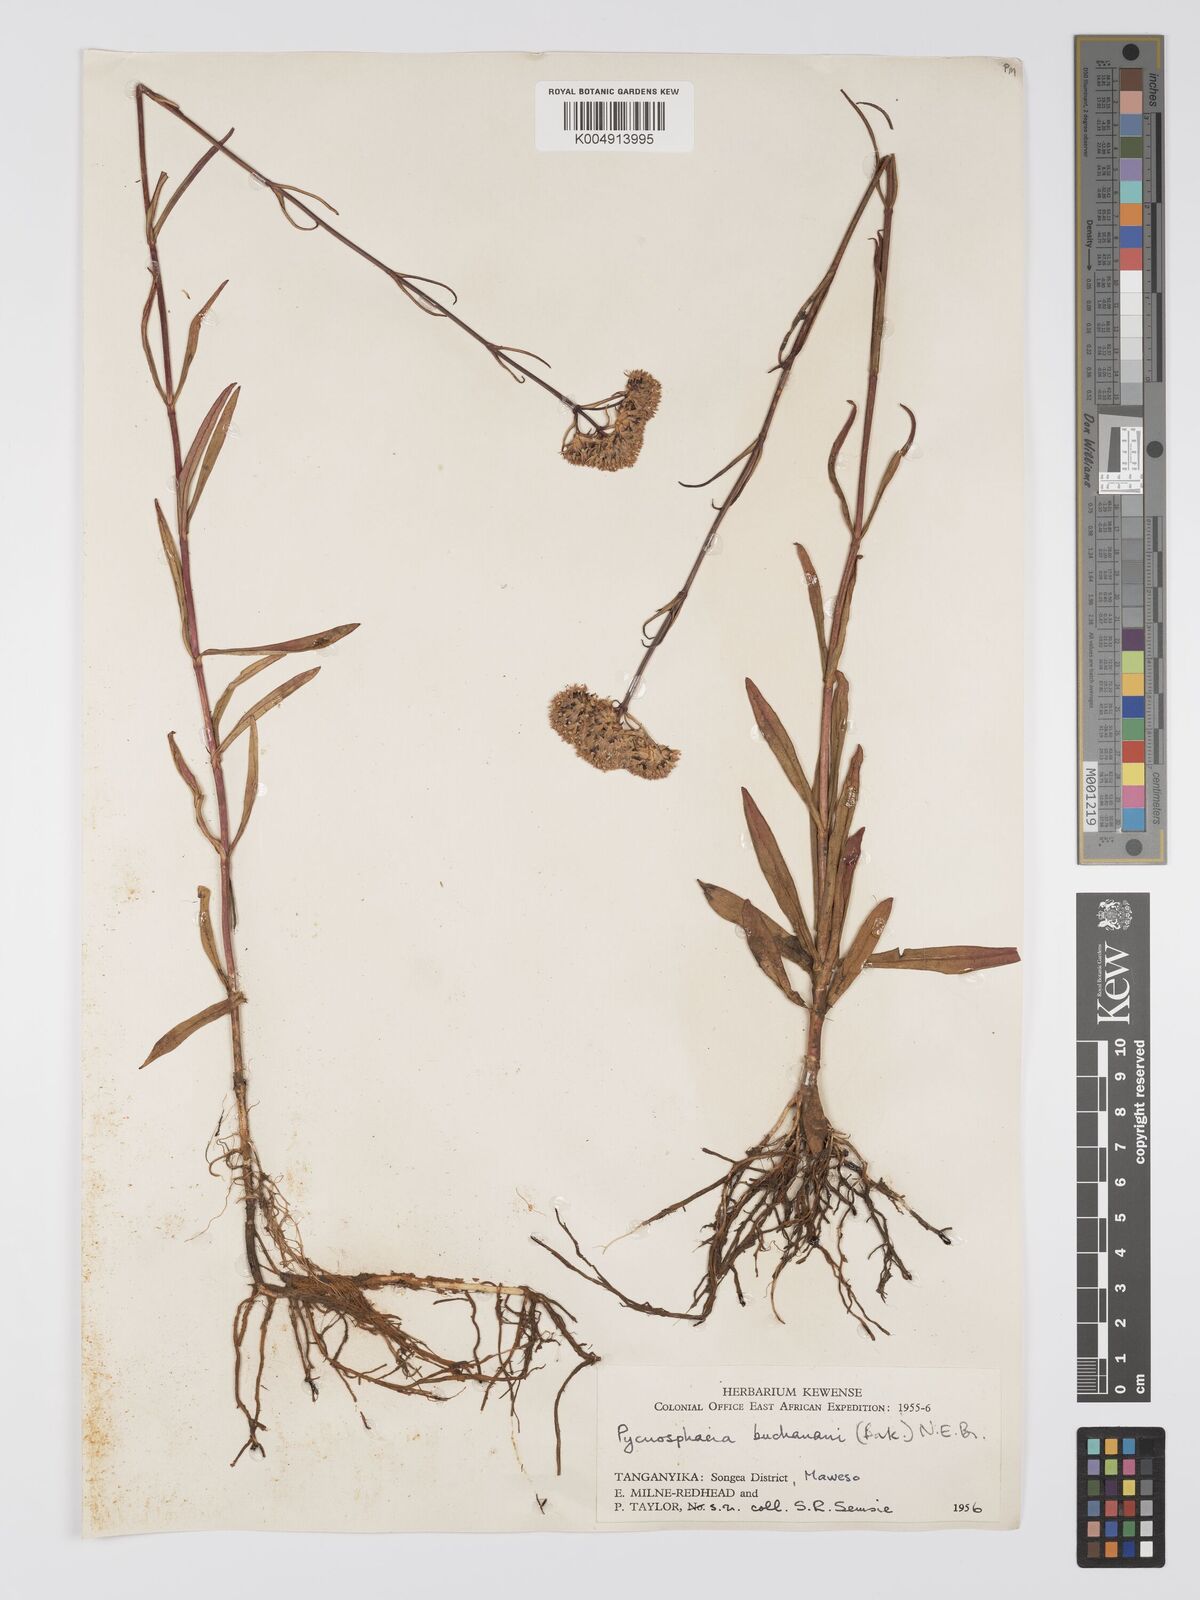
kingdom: Plantae
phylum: Tracheophyta
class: Magnoliopsida
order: Gentianales
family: Gentianaceae
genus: Pycnosphaera
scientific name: Pycnosphaera buchananii
